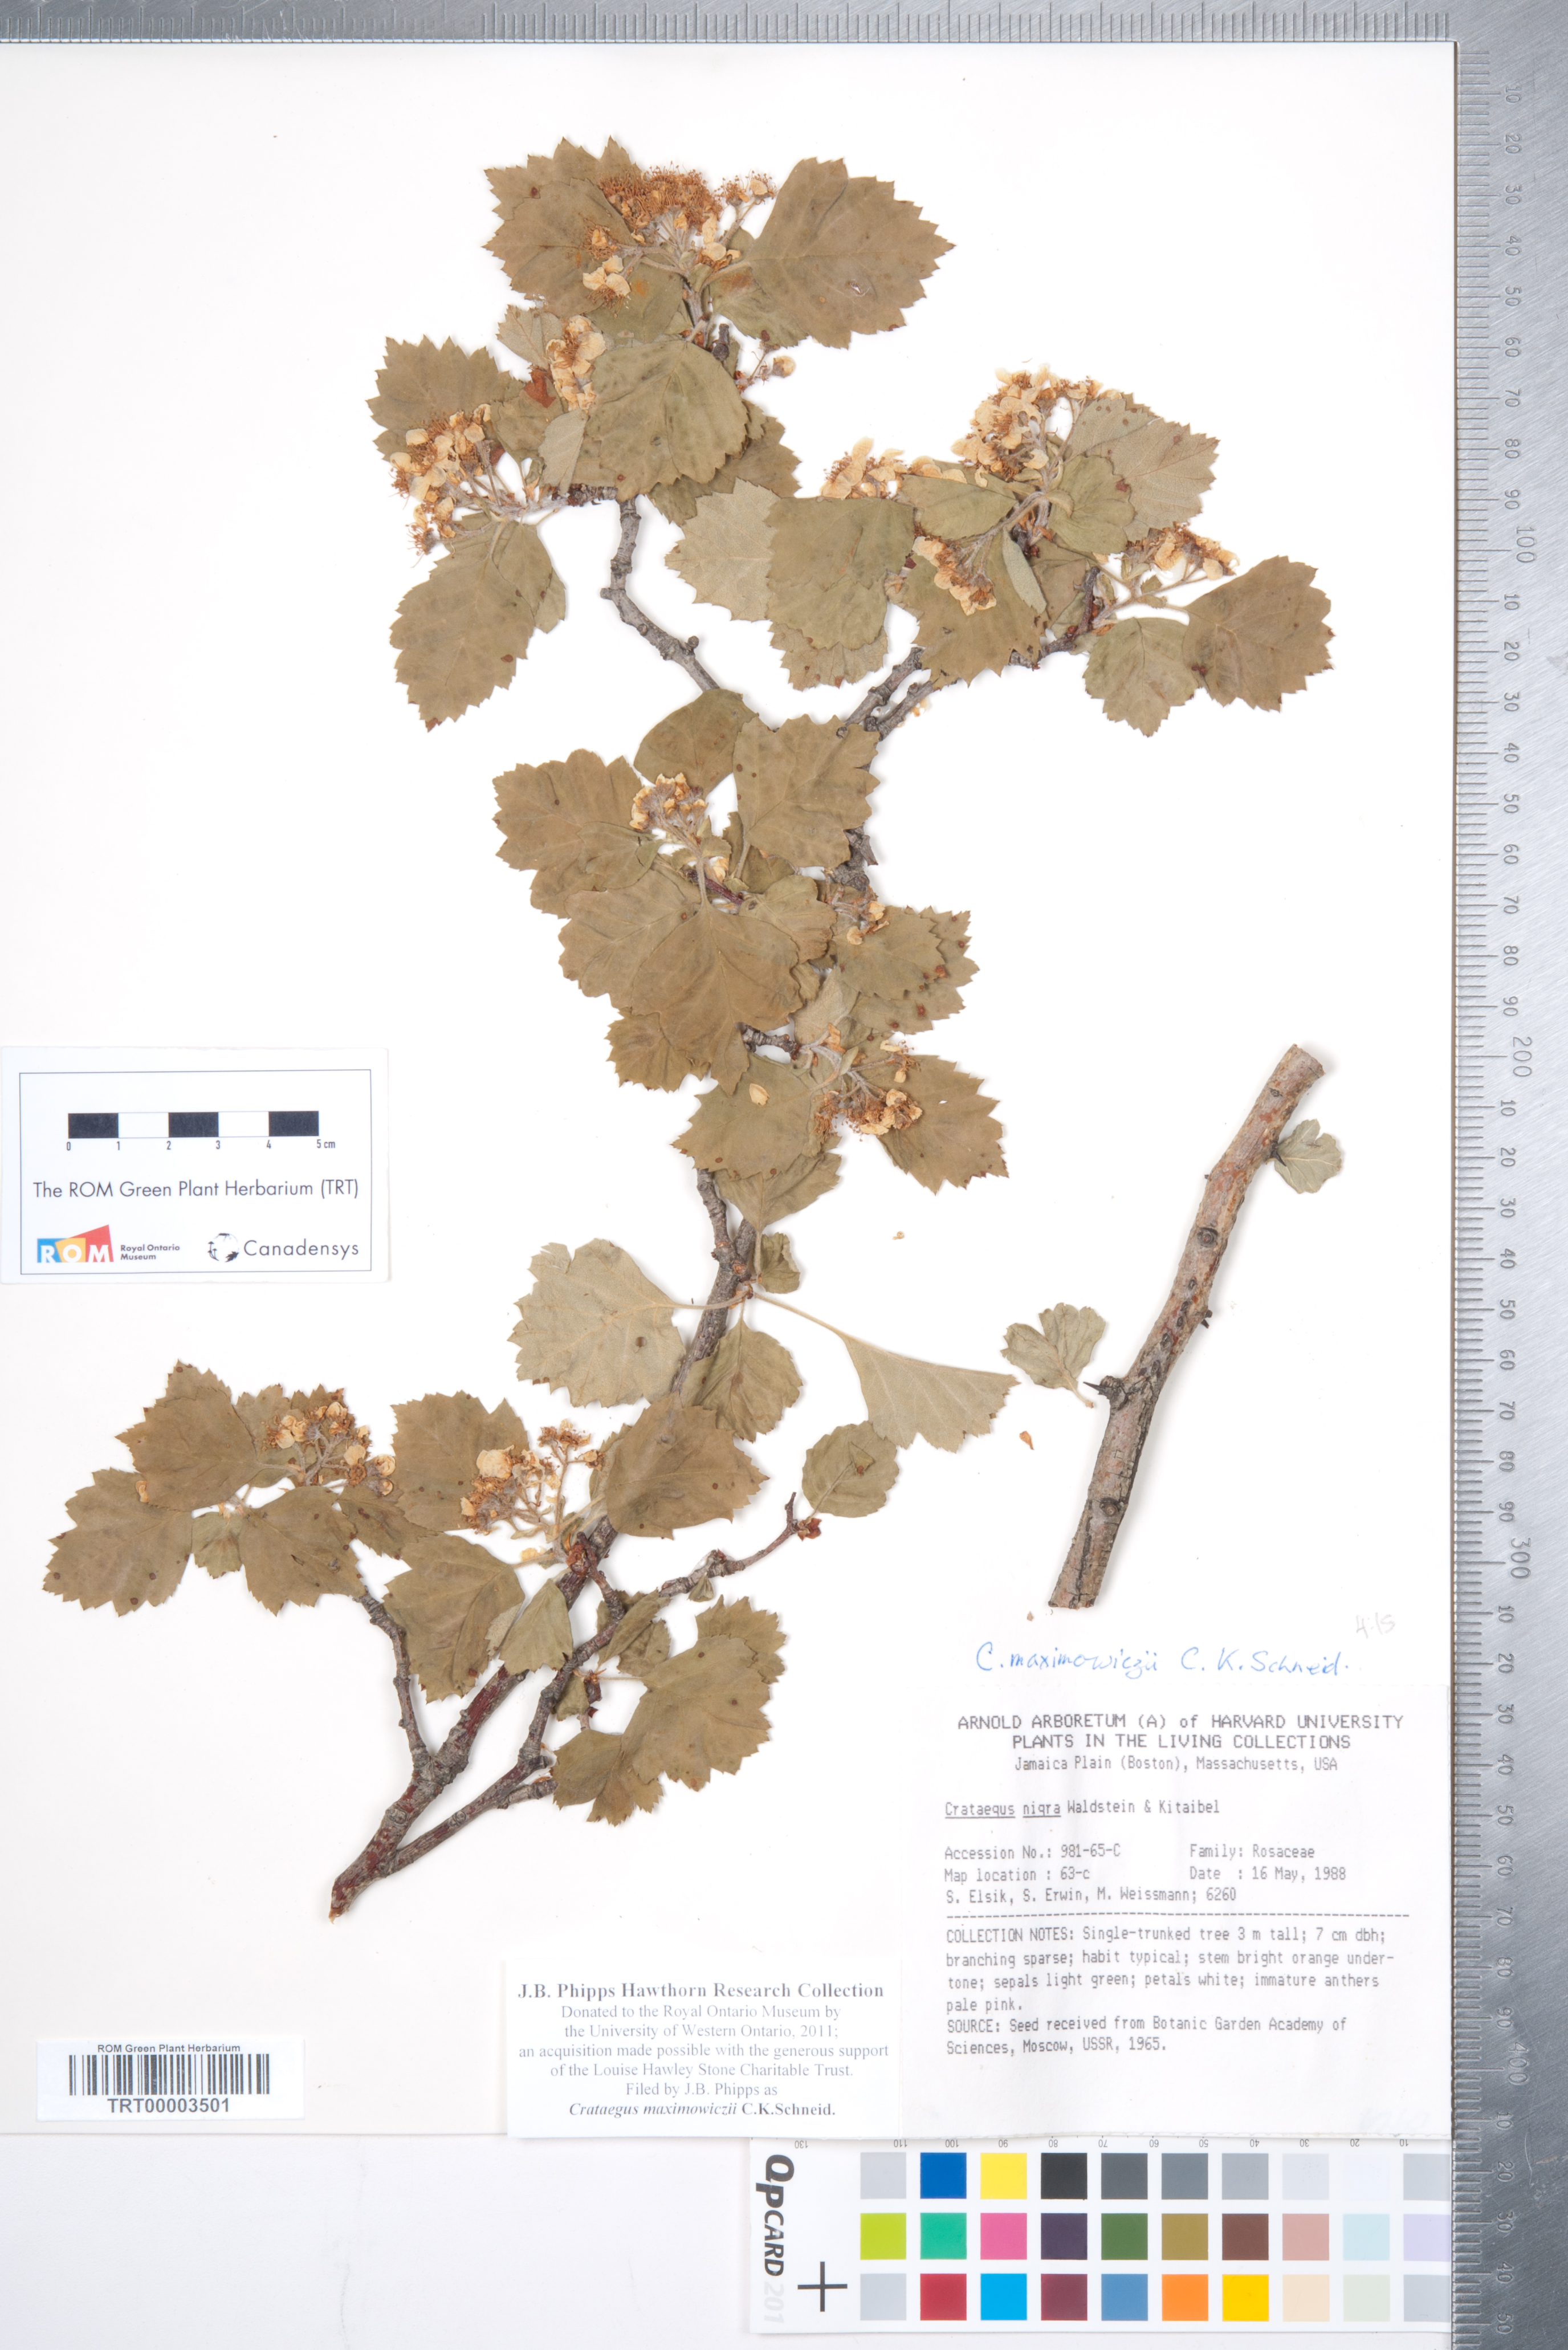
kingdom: Plantae
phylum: Tracheophyta
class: Magnoliopsida
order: Rosales
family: Rosaceae
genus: Crataegus
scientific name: Crataegus maximowiczii
